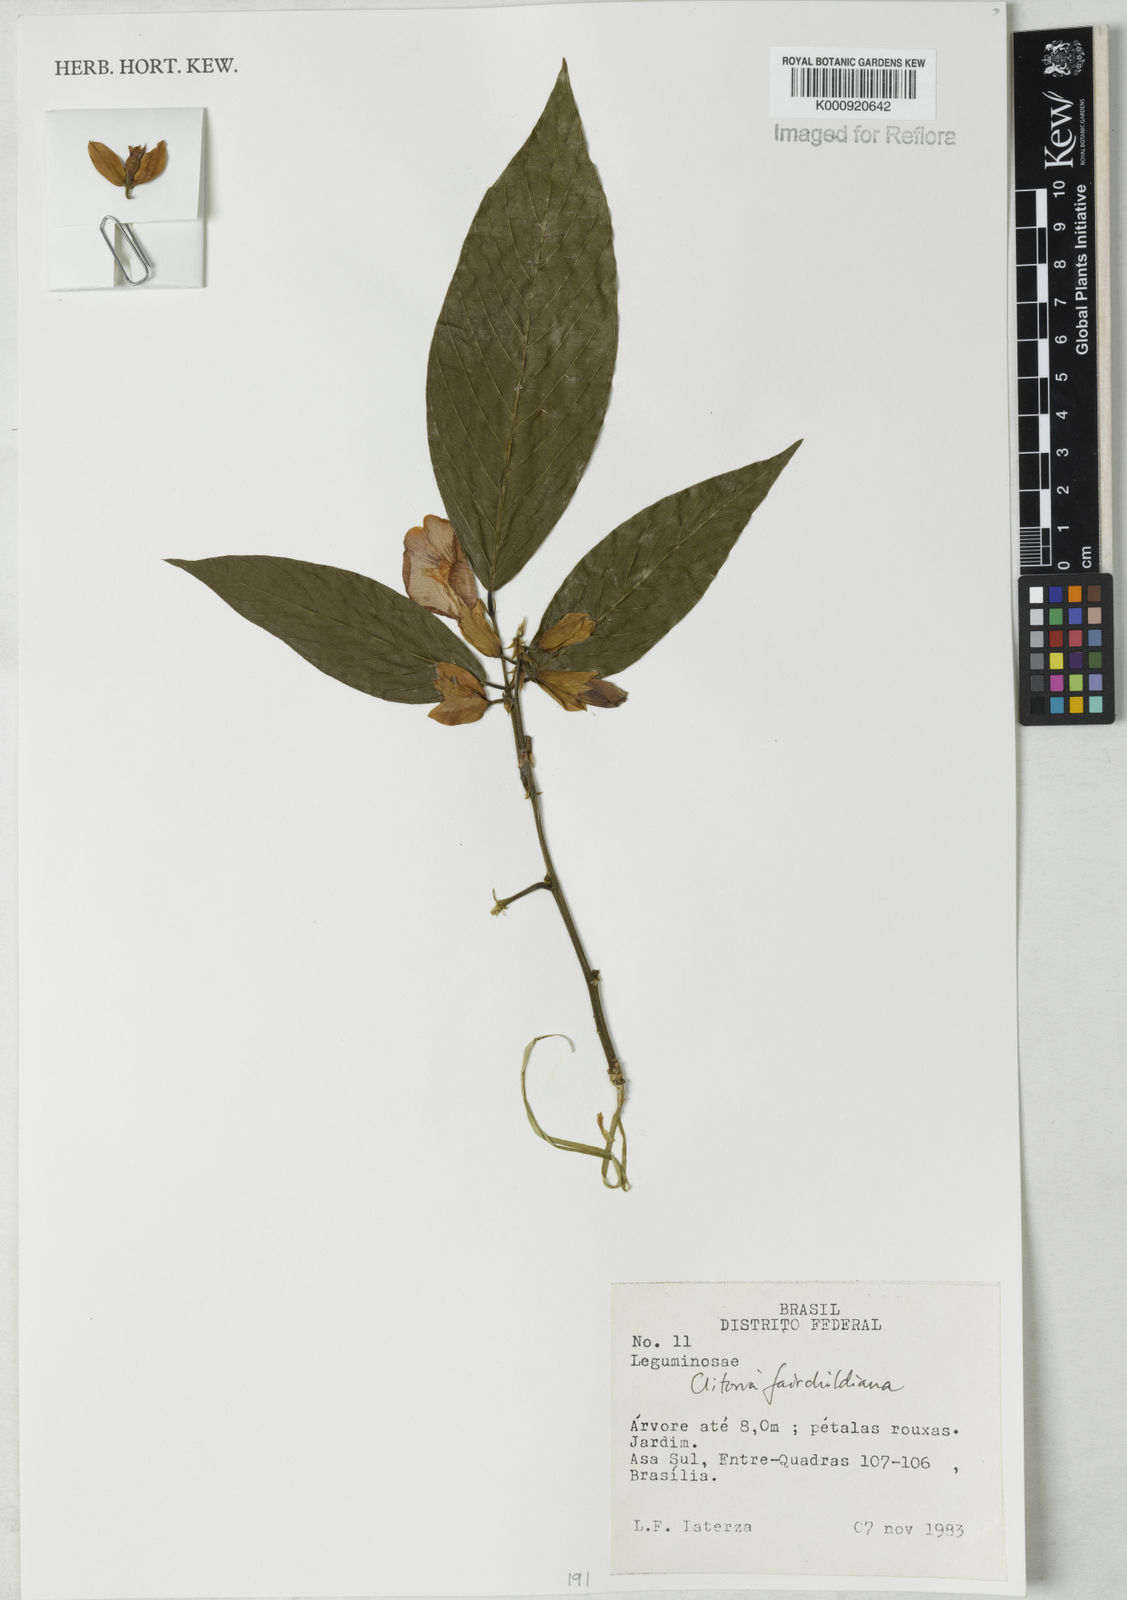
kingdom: Plantae
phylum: Tracheophyta
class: Magnoliopsida
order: Fabales
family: Fabaceae
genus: Clitoria
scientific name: Clitoria fairchildiana
